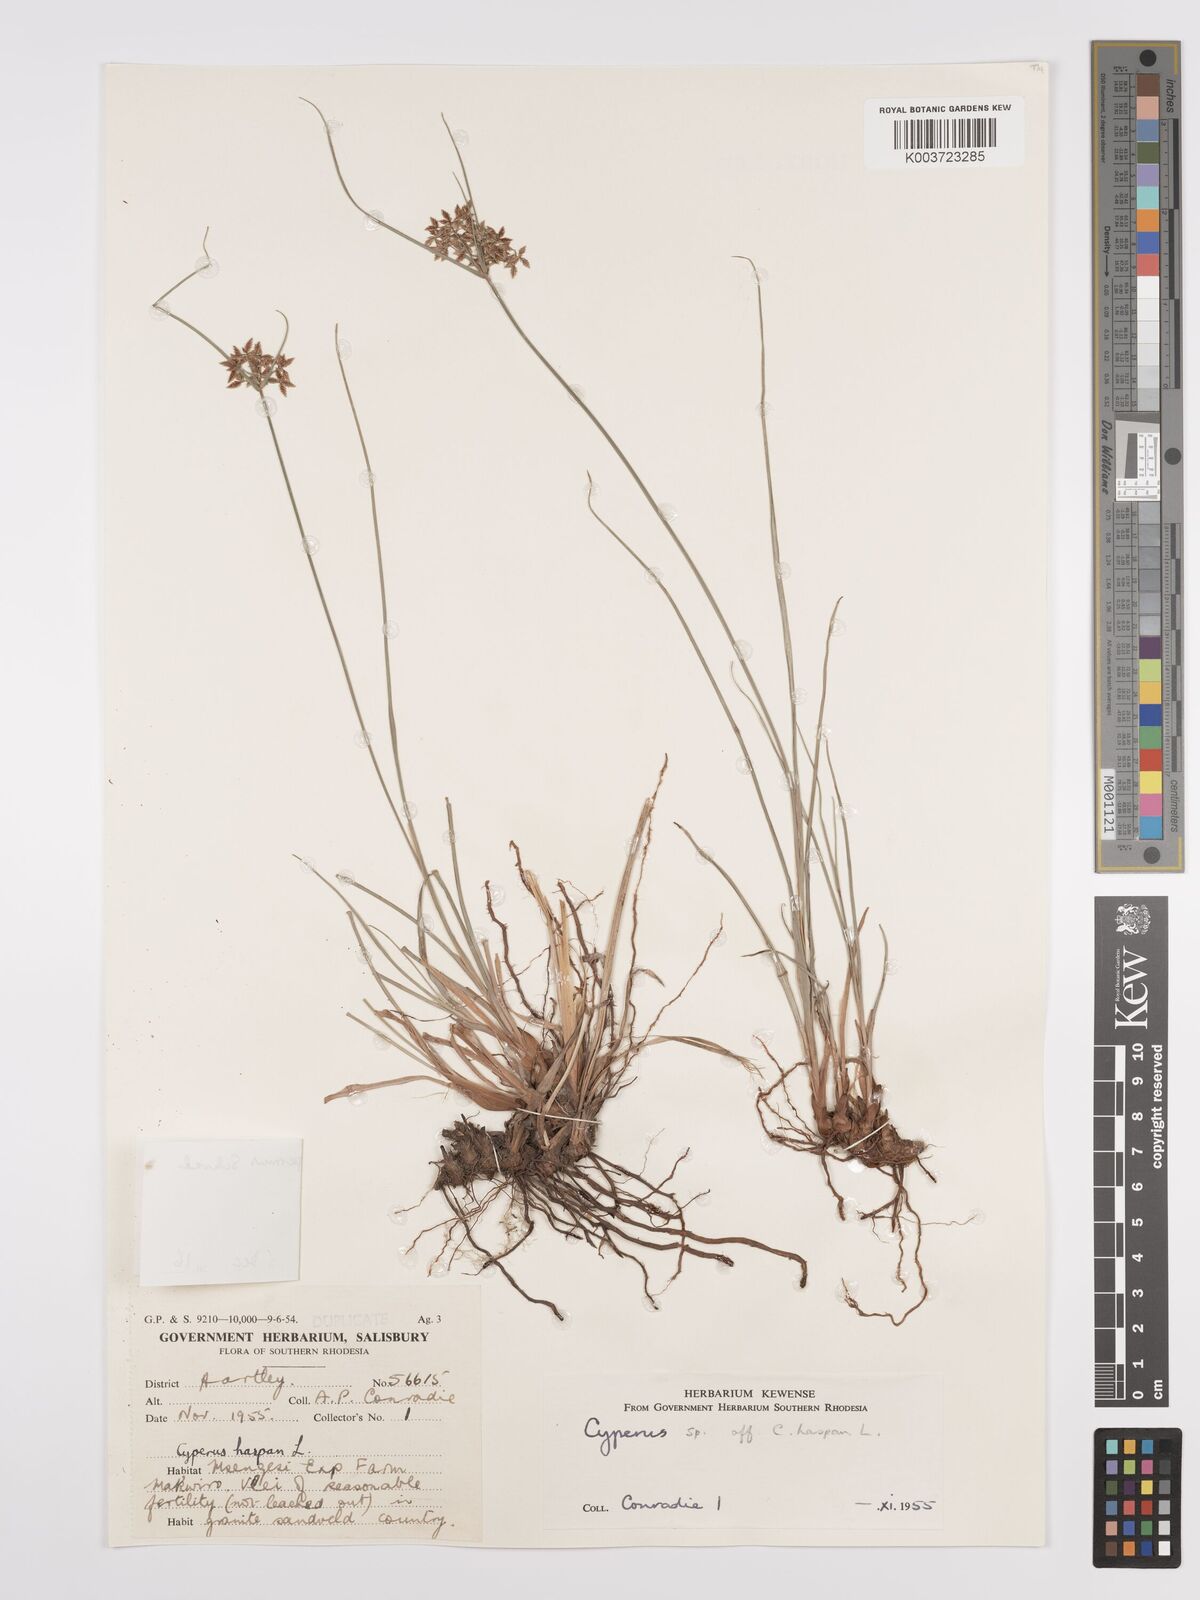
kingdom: Plantae
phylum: Tracheophyta
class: Liliopsida
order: Poales
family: Cyperaceae
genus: Cyperus
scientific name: Cyperus denudatus
